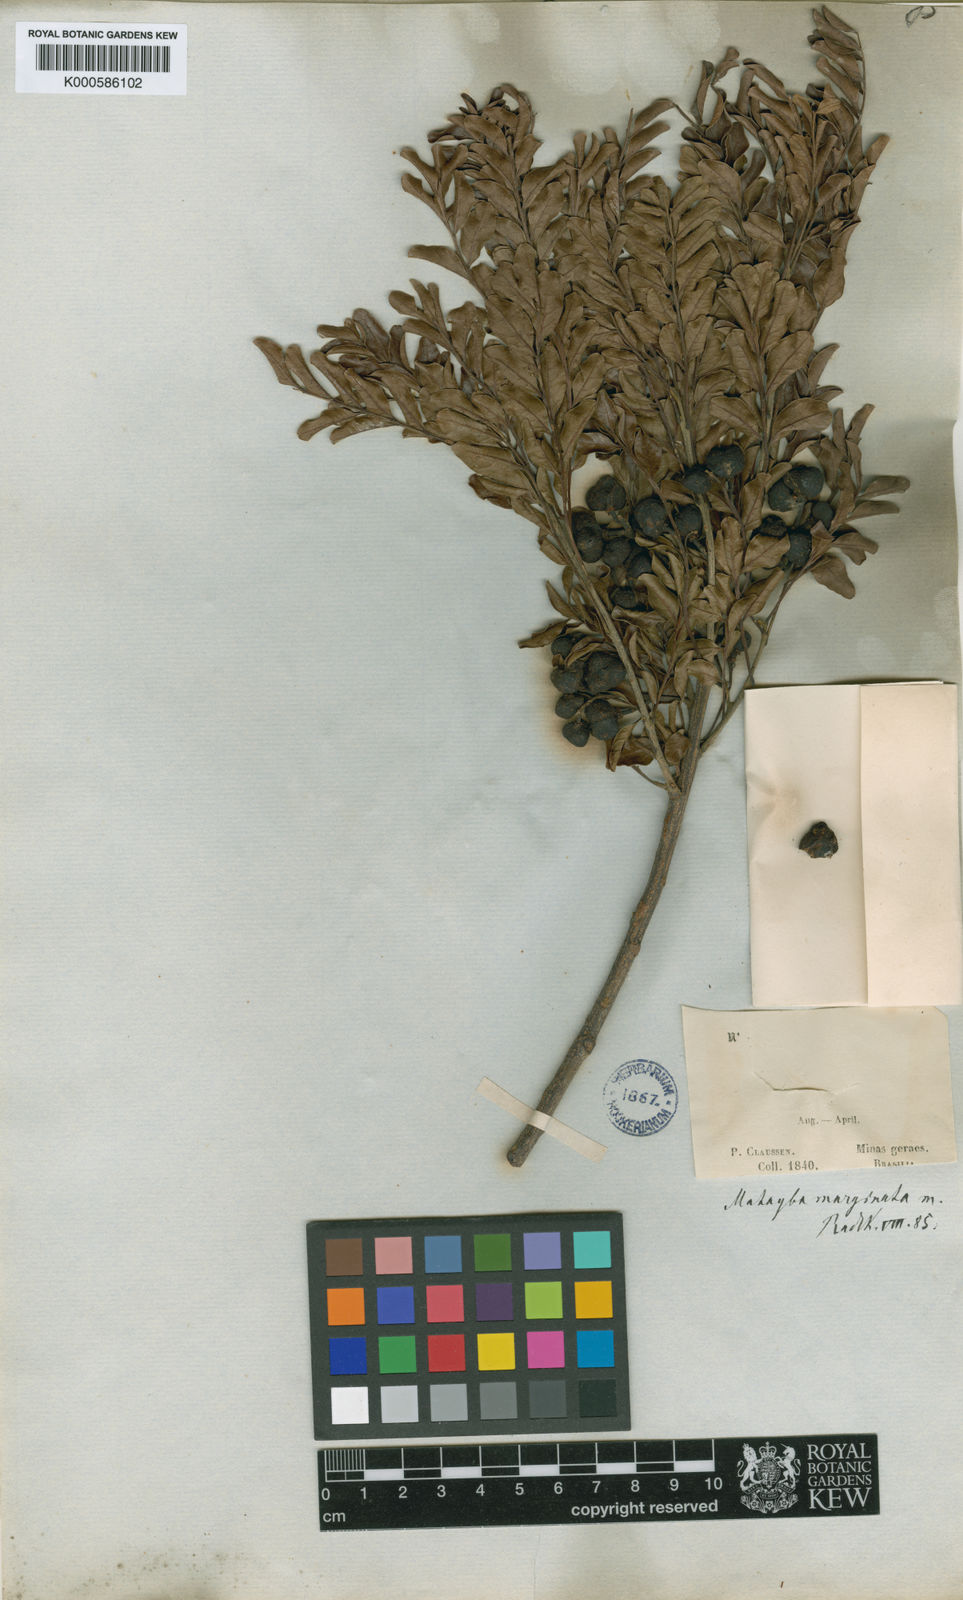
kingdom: Plantae
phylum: Tracheophyta
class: Magnoliopsida
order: Sapindales
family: Sapindaceae
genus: Matayba
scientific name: Matayba marginata
